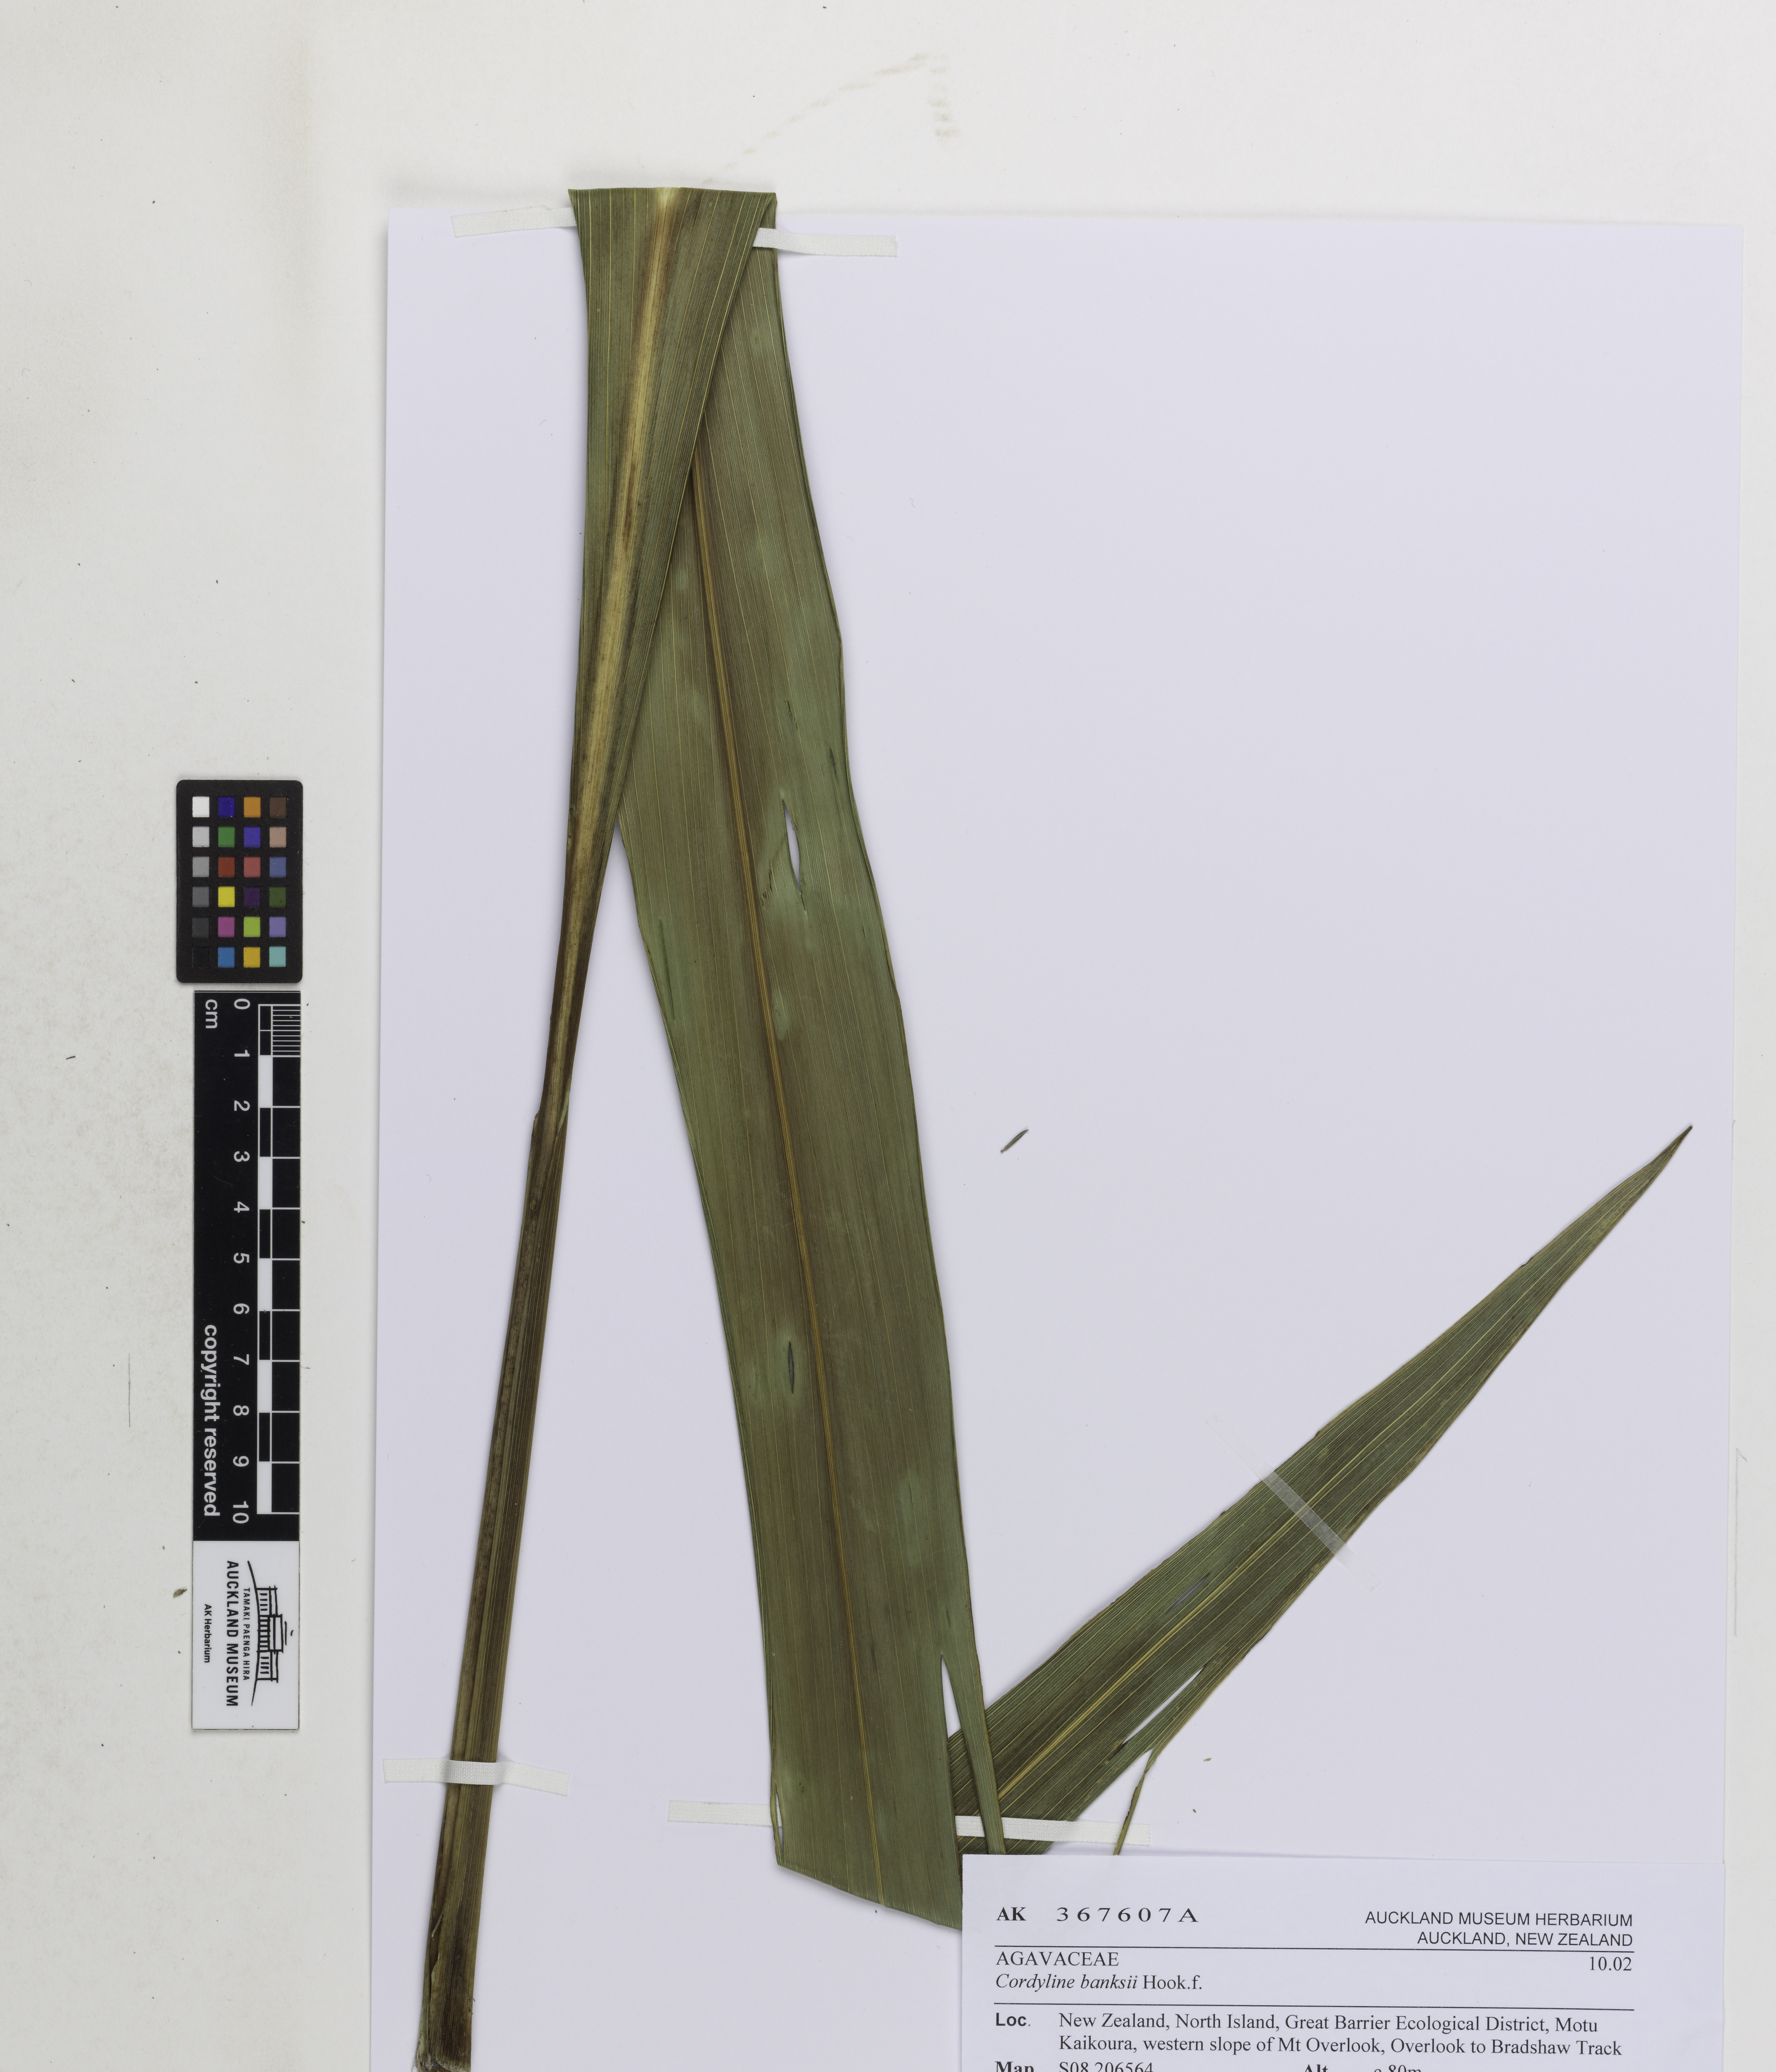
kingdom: Plantae
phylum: Tracheophyta
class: Liliopsida
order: Asparagales
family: Asparagaceae
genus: Cordyline
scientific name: Cordyline banksii
